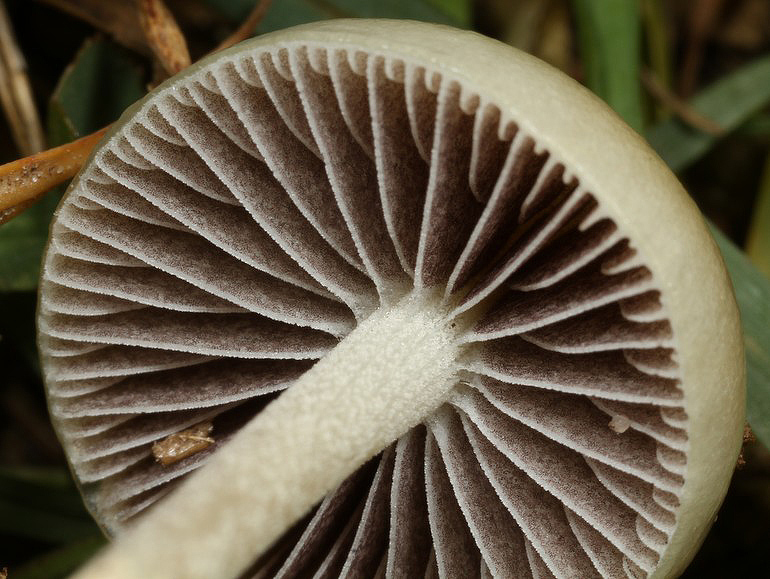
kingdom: Fungi
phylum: Basidiomycota
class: Agaricomycetes
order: Agaricales
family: Strophariaceae
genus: Protostropharia
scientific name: Protostropharia semiglobata
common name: halvkugleformet bredblad
